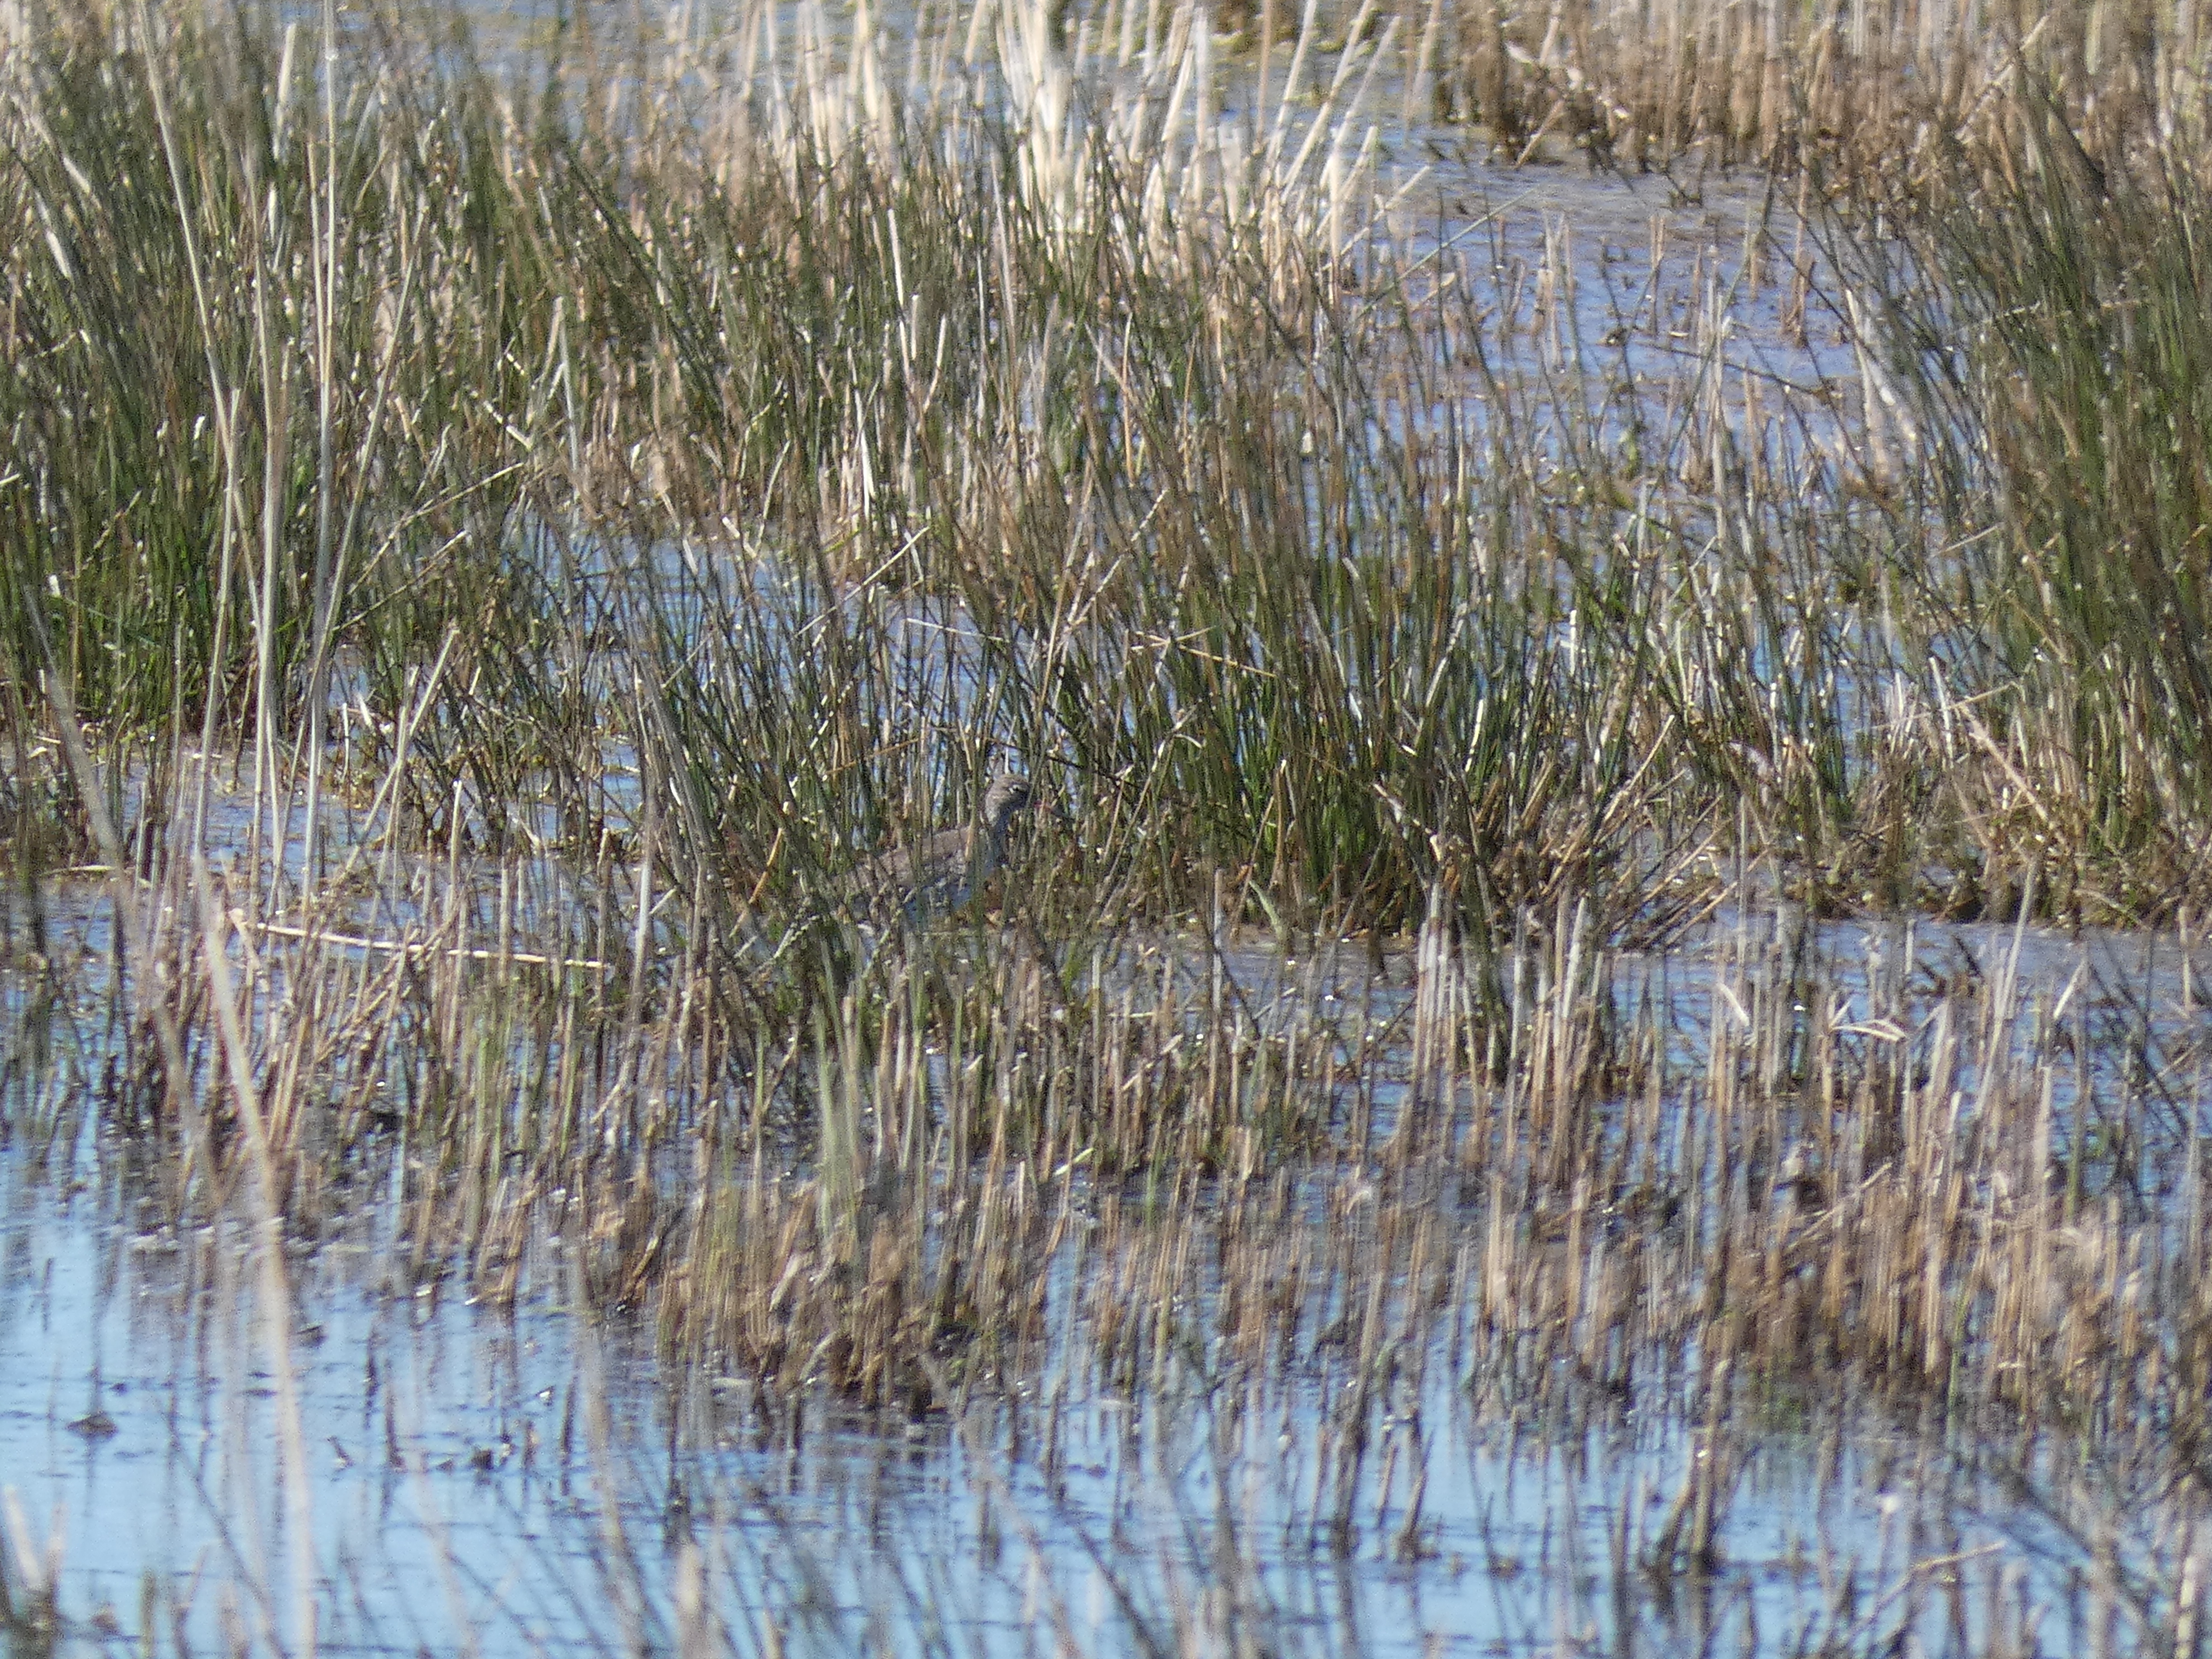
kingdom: Animalia
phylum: Chordata
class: Aves
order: Charadriiformes
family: Scolopacidae
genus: Tringa
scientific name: Tringa totanus
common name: Rødben
